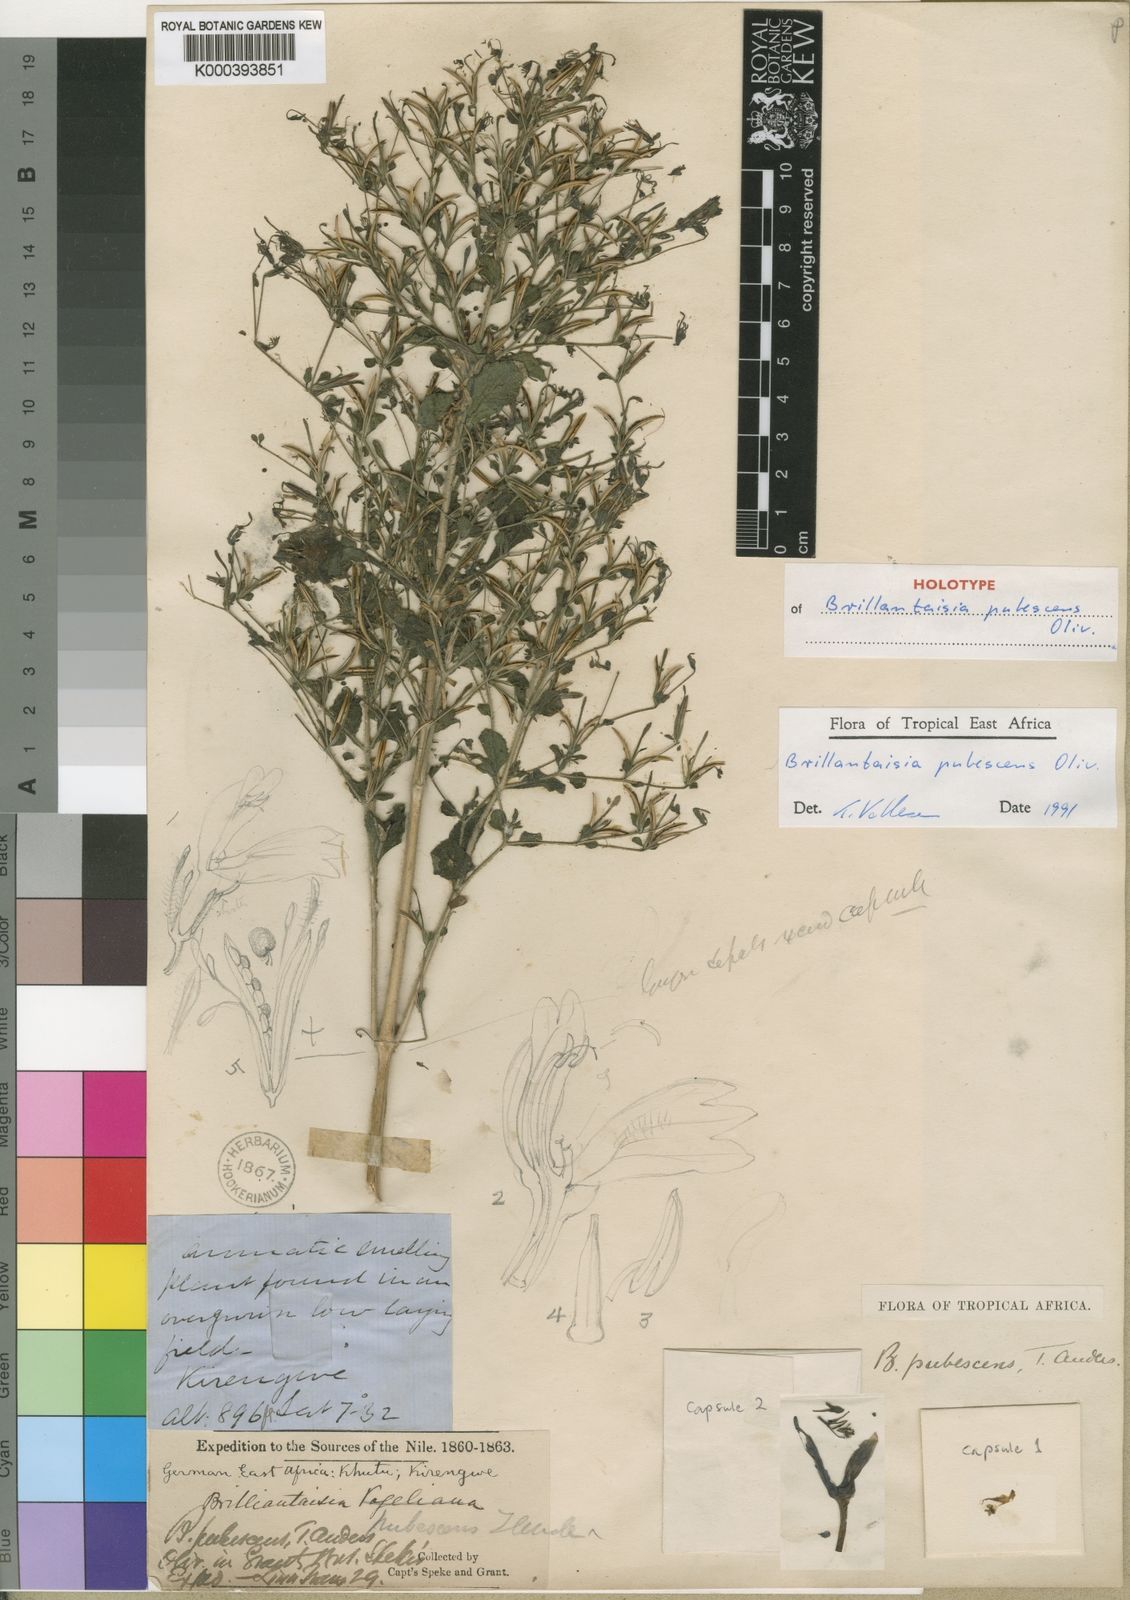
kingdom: Plantae
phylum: Tracheophyta
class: Magnoliopsida
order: Lamiales
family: Acanthaceae
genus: Brillantaisia
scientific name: Brillantaisia pubescens
